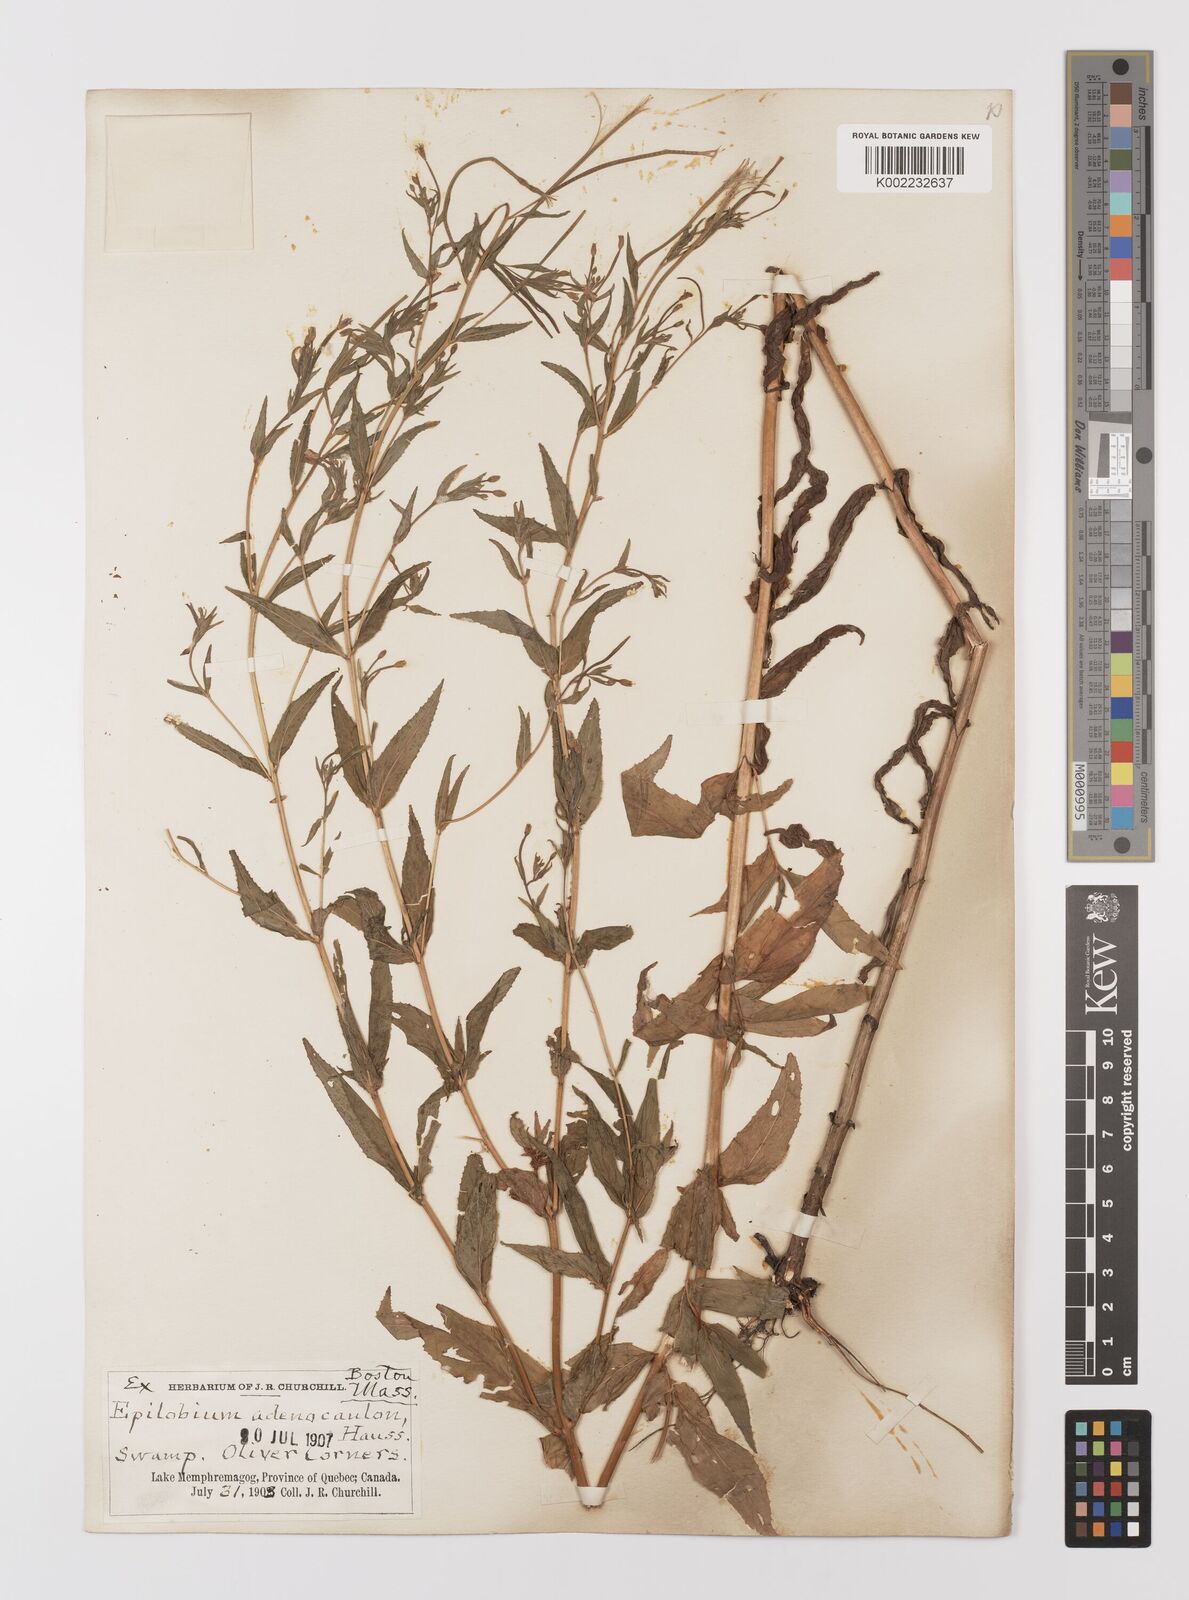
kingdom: Plantae
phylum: Tracheophyta
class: Magnoliopsida
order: Myrtales
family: Onagraceae
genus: Epilobium
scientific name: Epilobium ciliatum
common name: American willowherb
